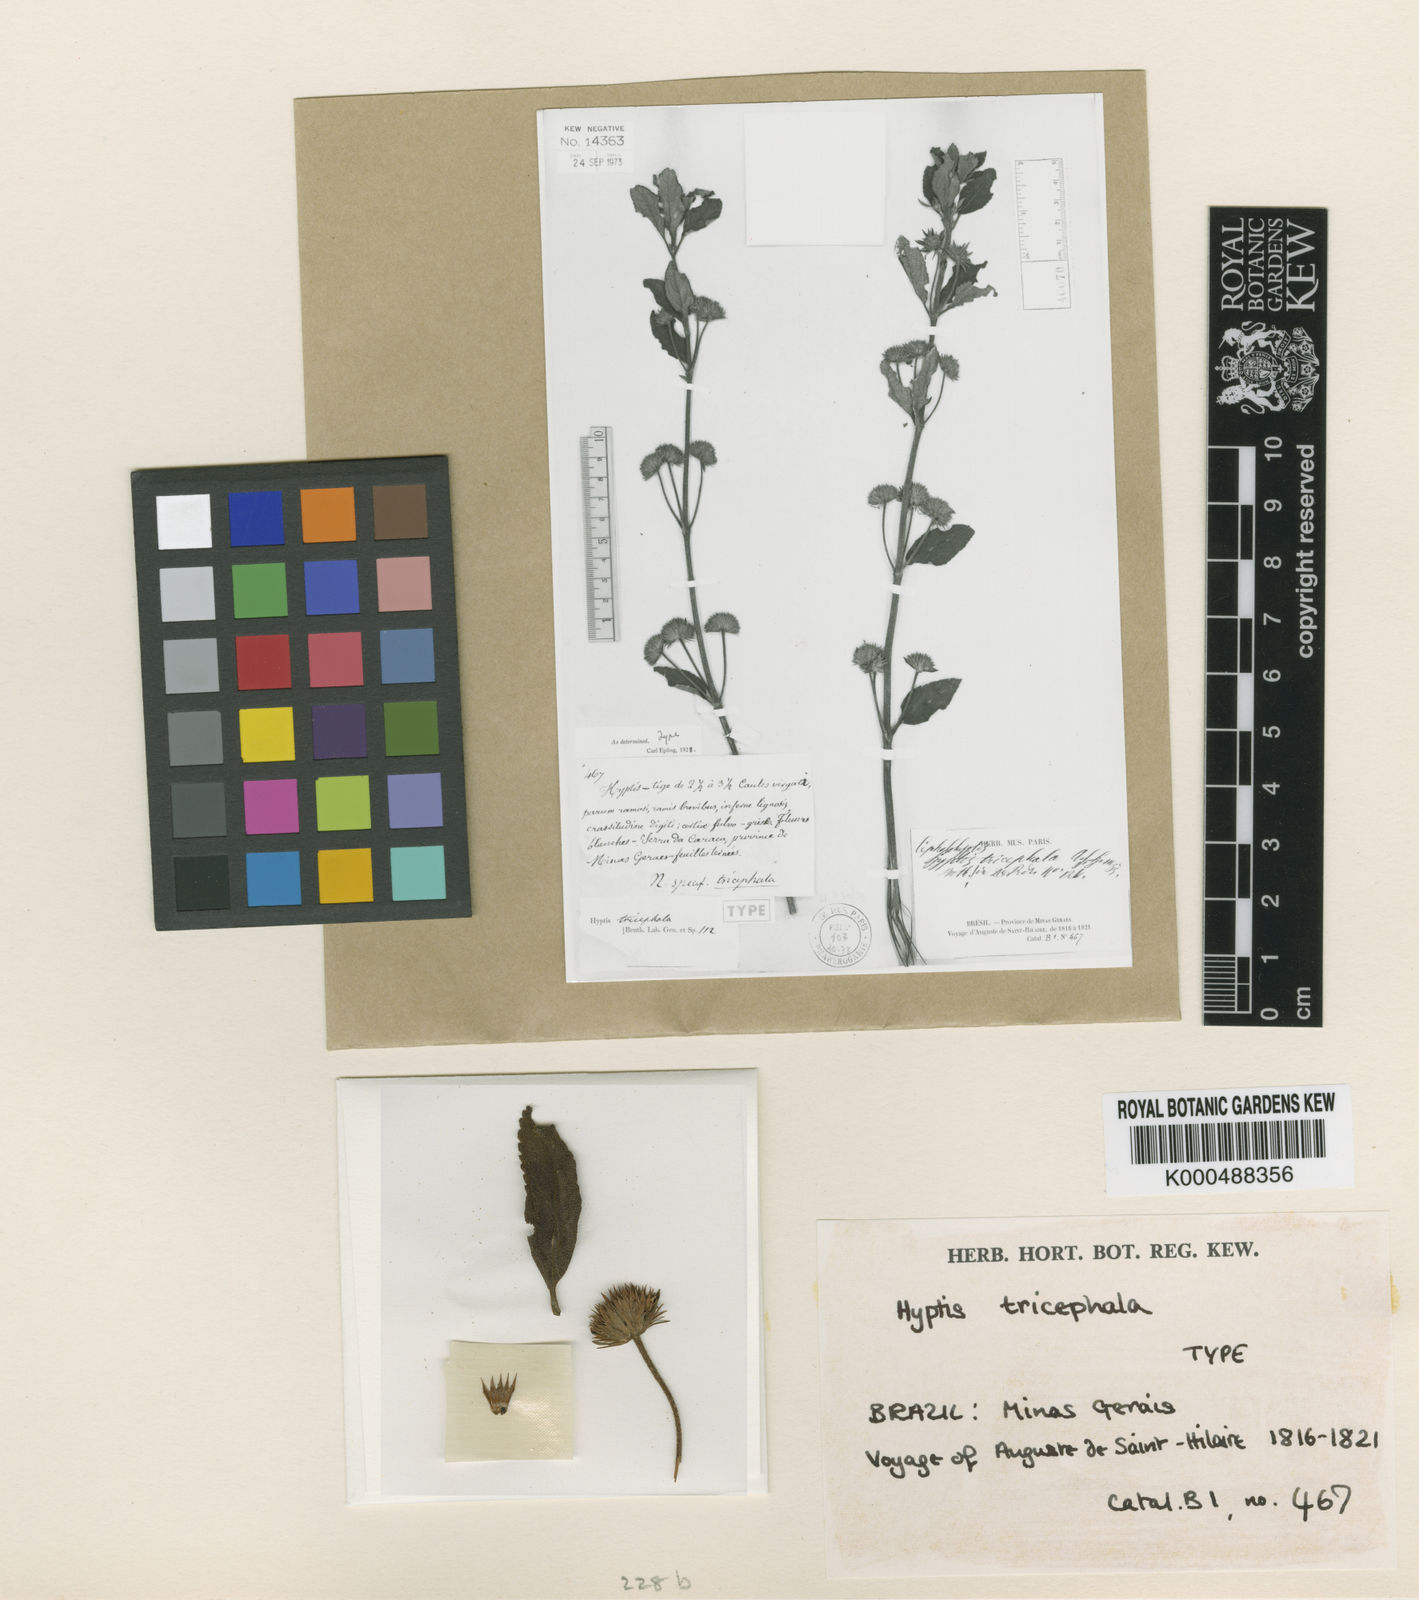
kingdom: Plantae
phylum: Tracheophyta
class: Magnoliopsida
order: Lamiales
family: Lamiaceae
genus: Hyptis
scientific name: Hyptis tricephala
